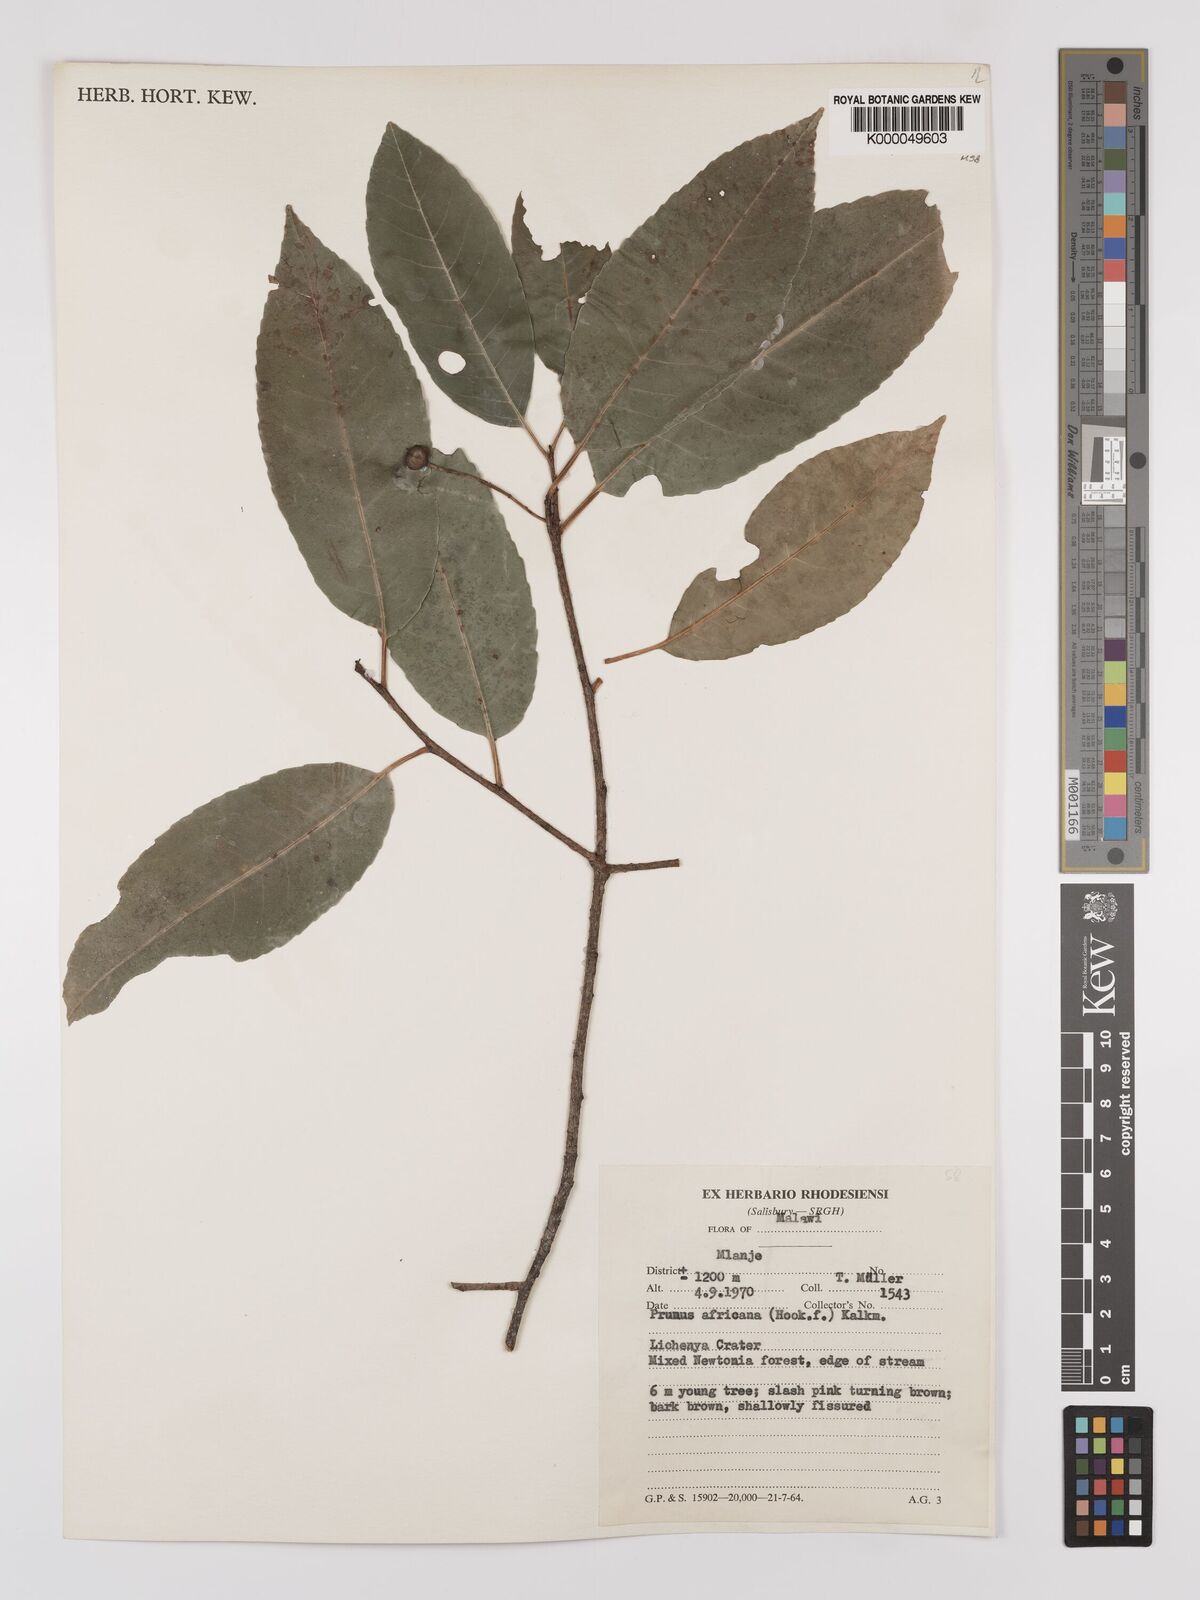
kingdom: Plantae
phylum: Tracheophyta
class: Magnoliopsida
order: Rosales
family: Rosaceae
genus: Prunus
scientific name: Prunus africana
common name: African cherry
